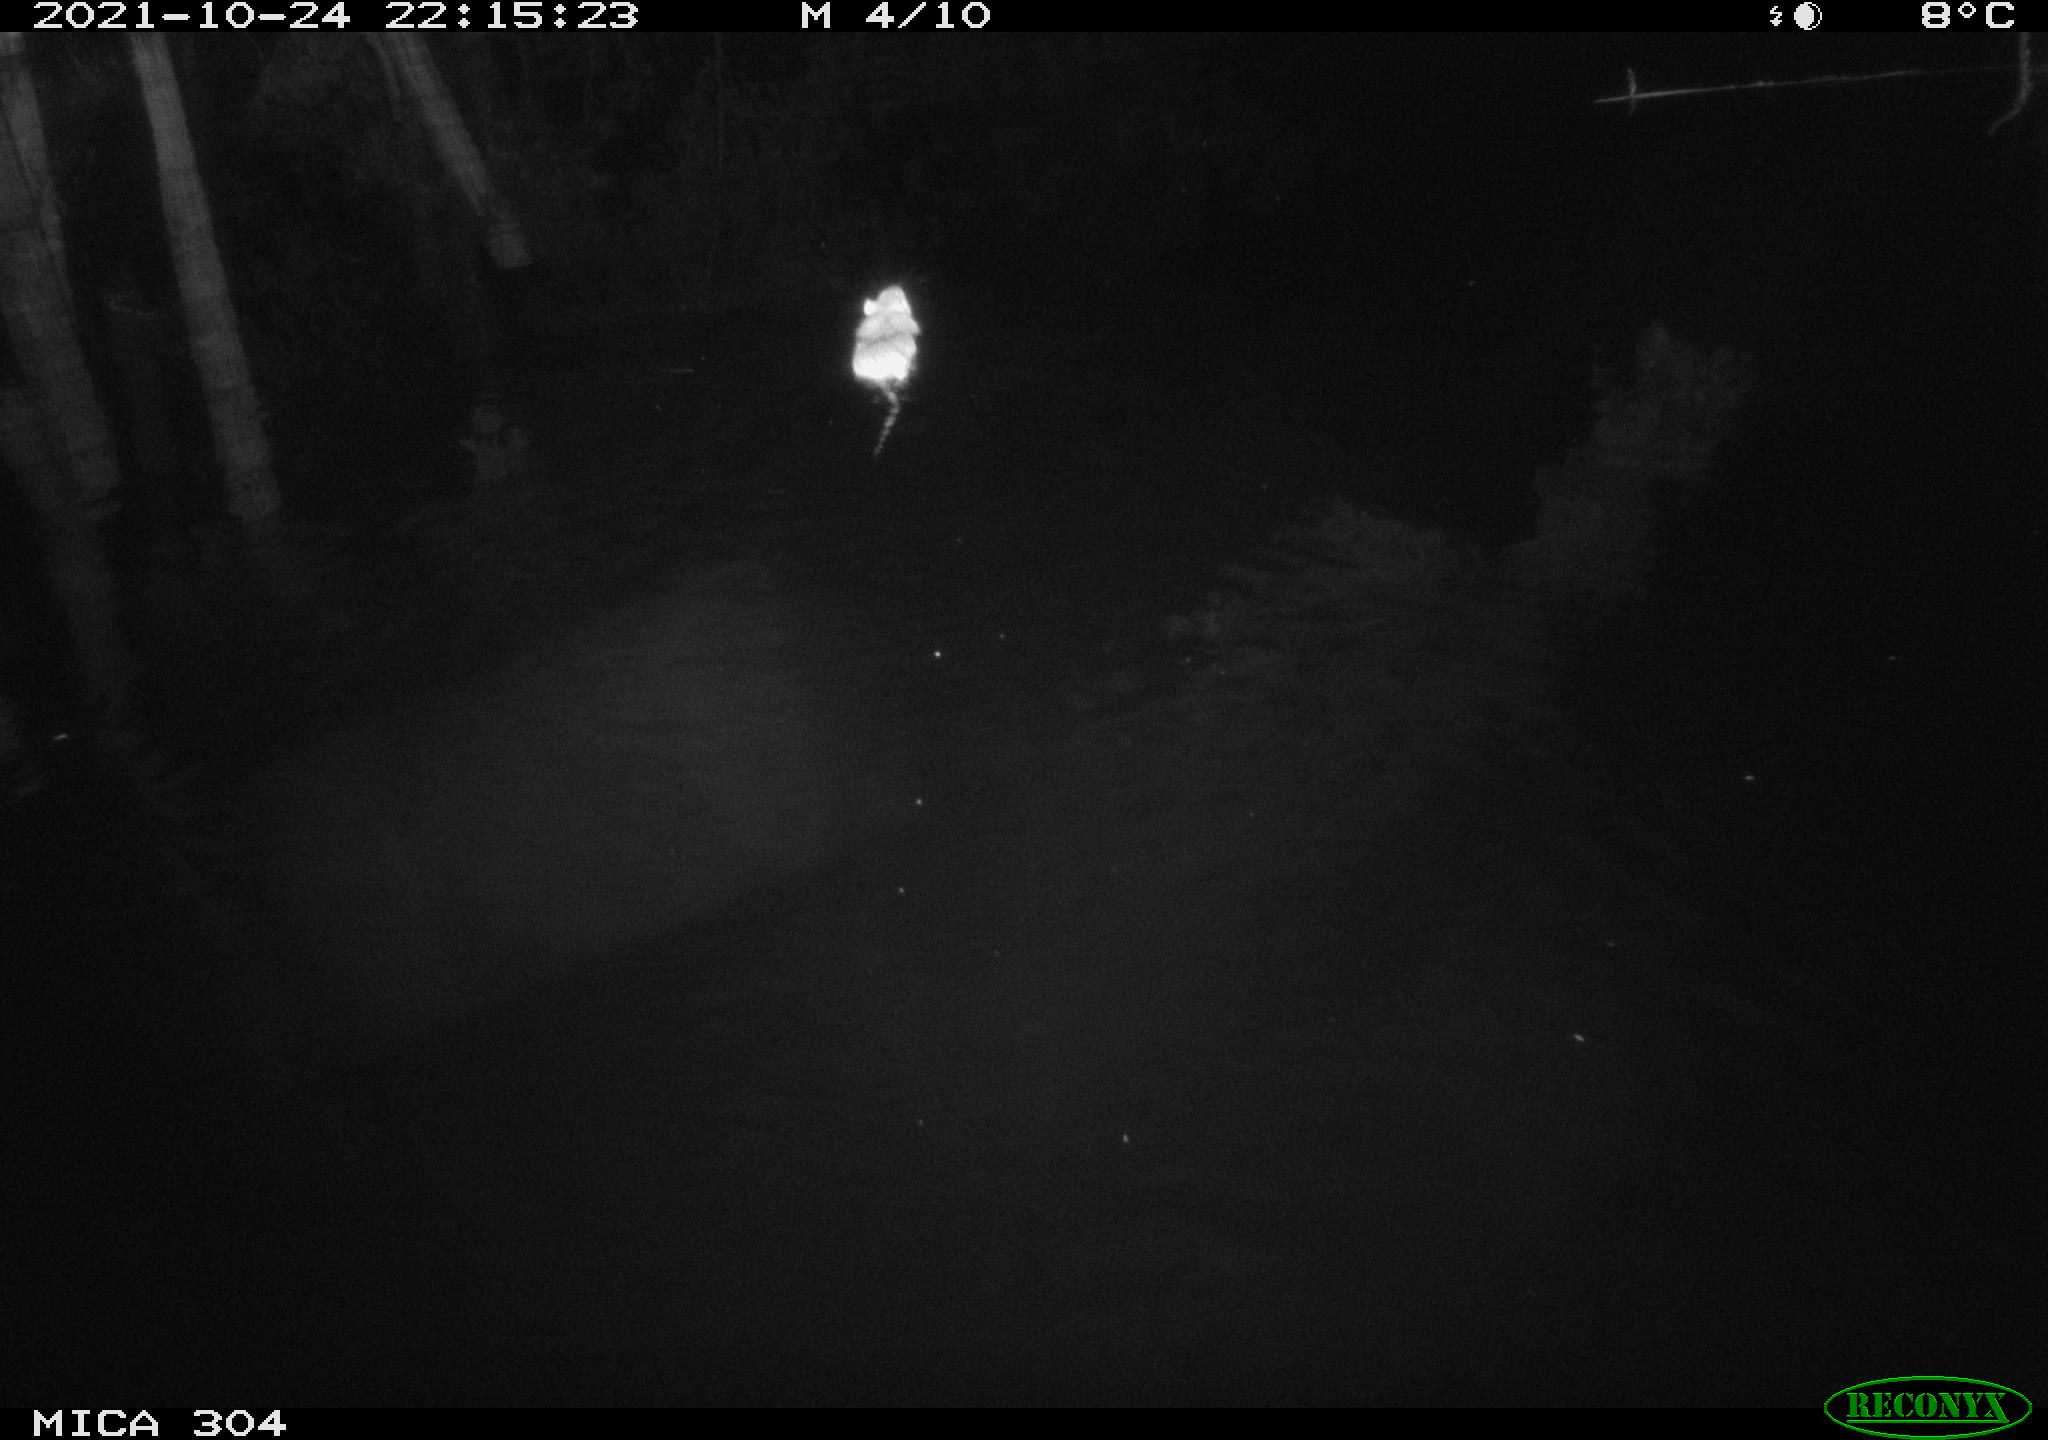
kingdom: Animalia
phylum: Chordata
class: Mammalia
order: Rodentia
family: Muridae
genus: Rattus
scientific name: Rattus norvegicus
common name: Brown rat
